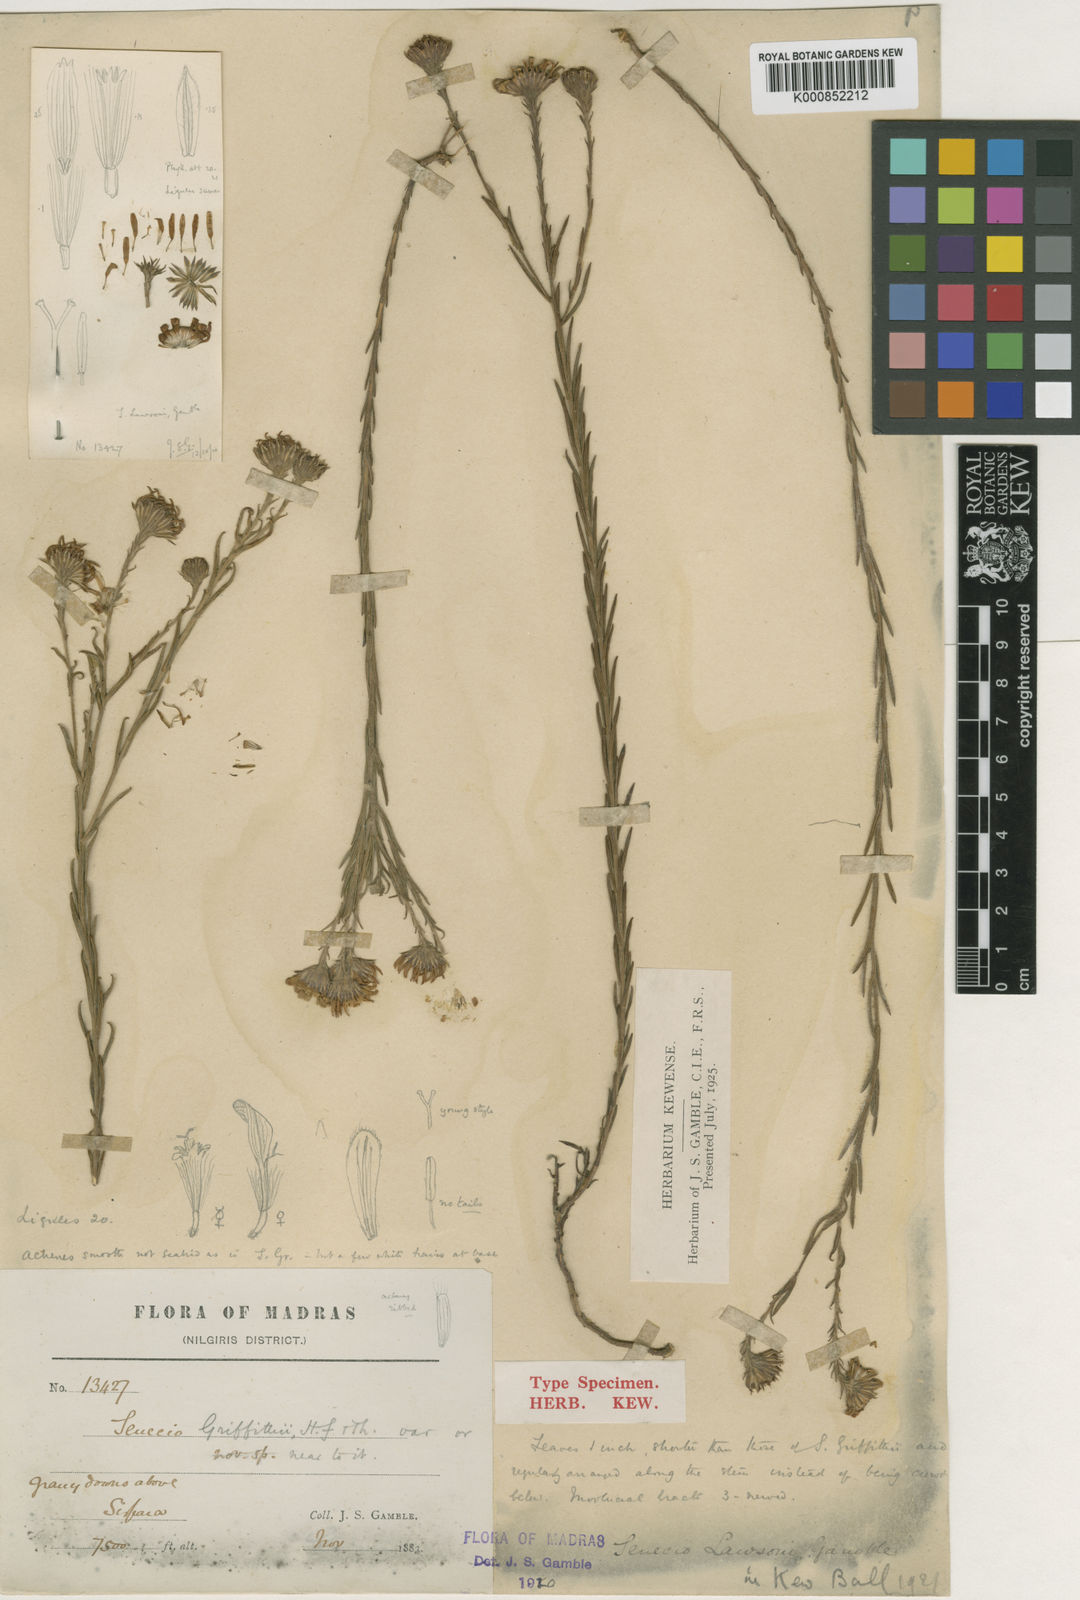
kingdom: Plantae
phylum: Tracheophyta
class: Magnoliopsida
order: Asterales
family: Asteraceae
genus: Senecio
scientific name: Senecio lawsonii
